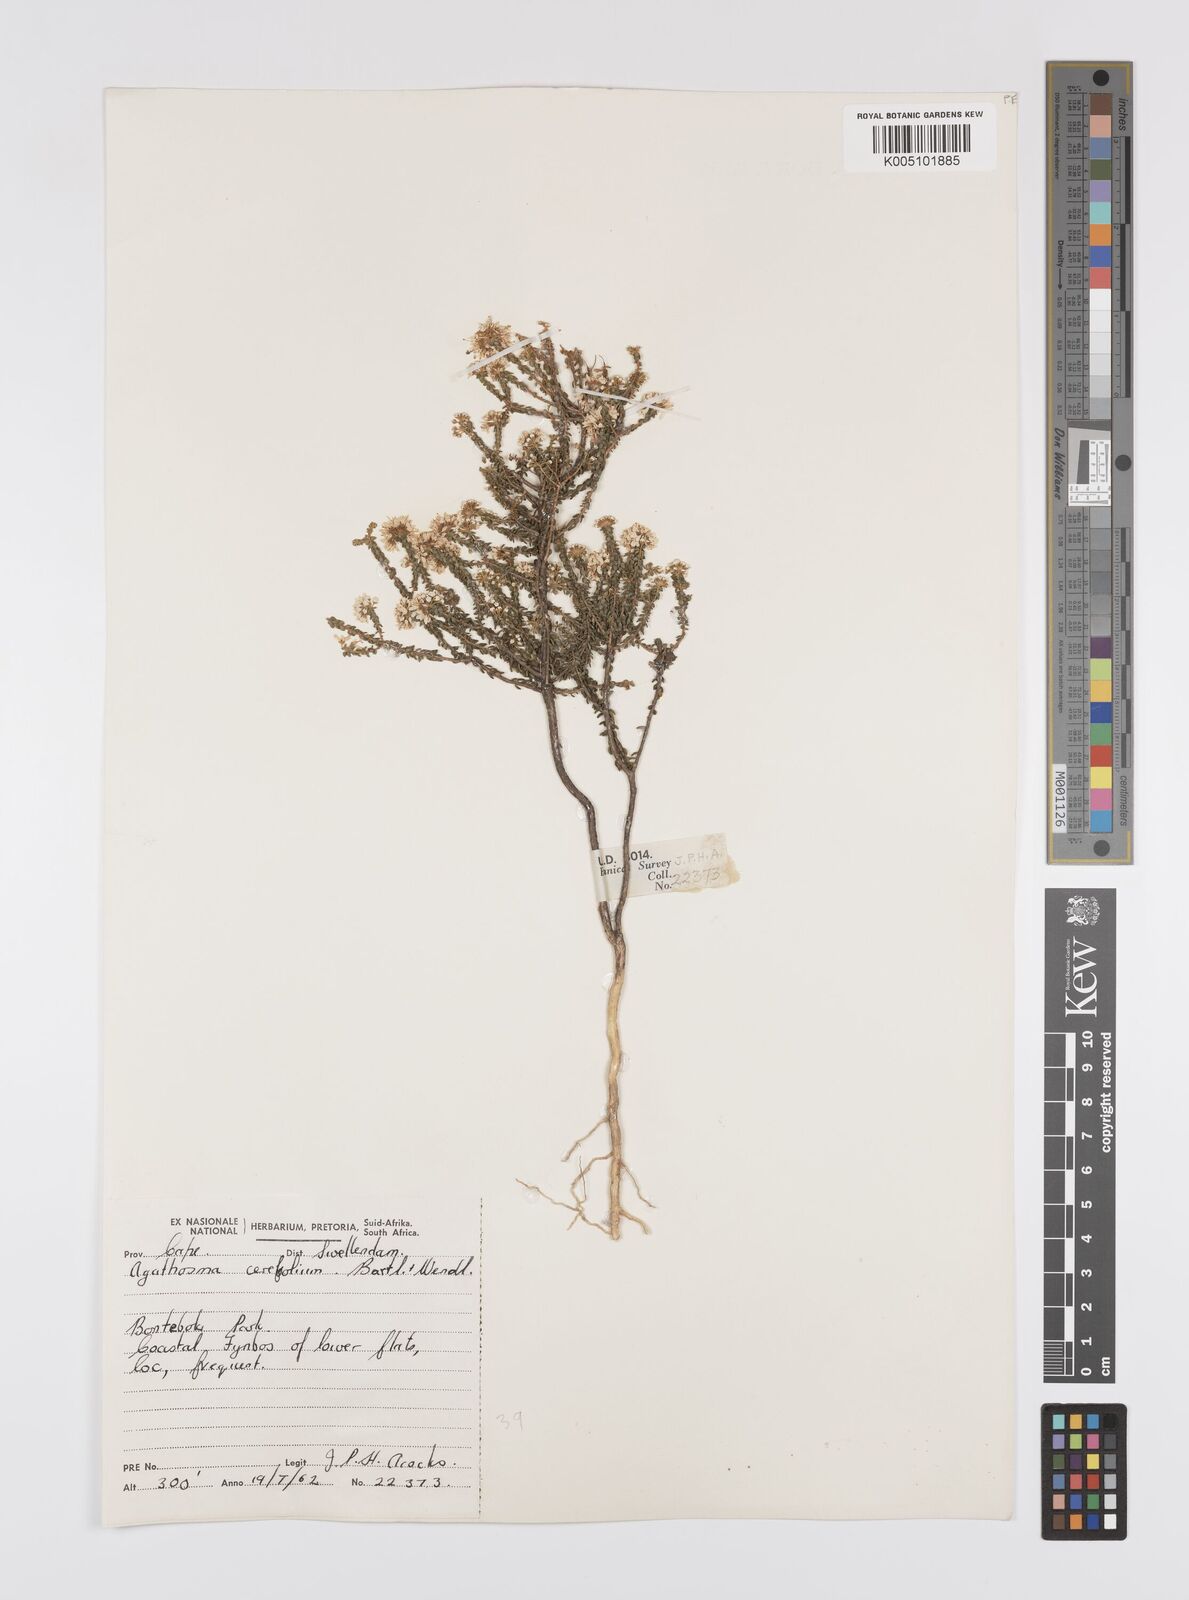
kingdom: Plantae
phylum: Tracheophyta
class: Magnoliopsida
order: Sapindales
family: Rutaceae
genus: Agathosma
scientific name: Agathosma cerefolia
